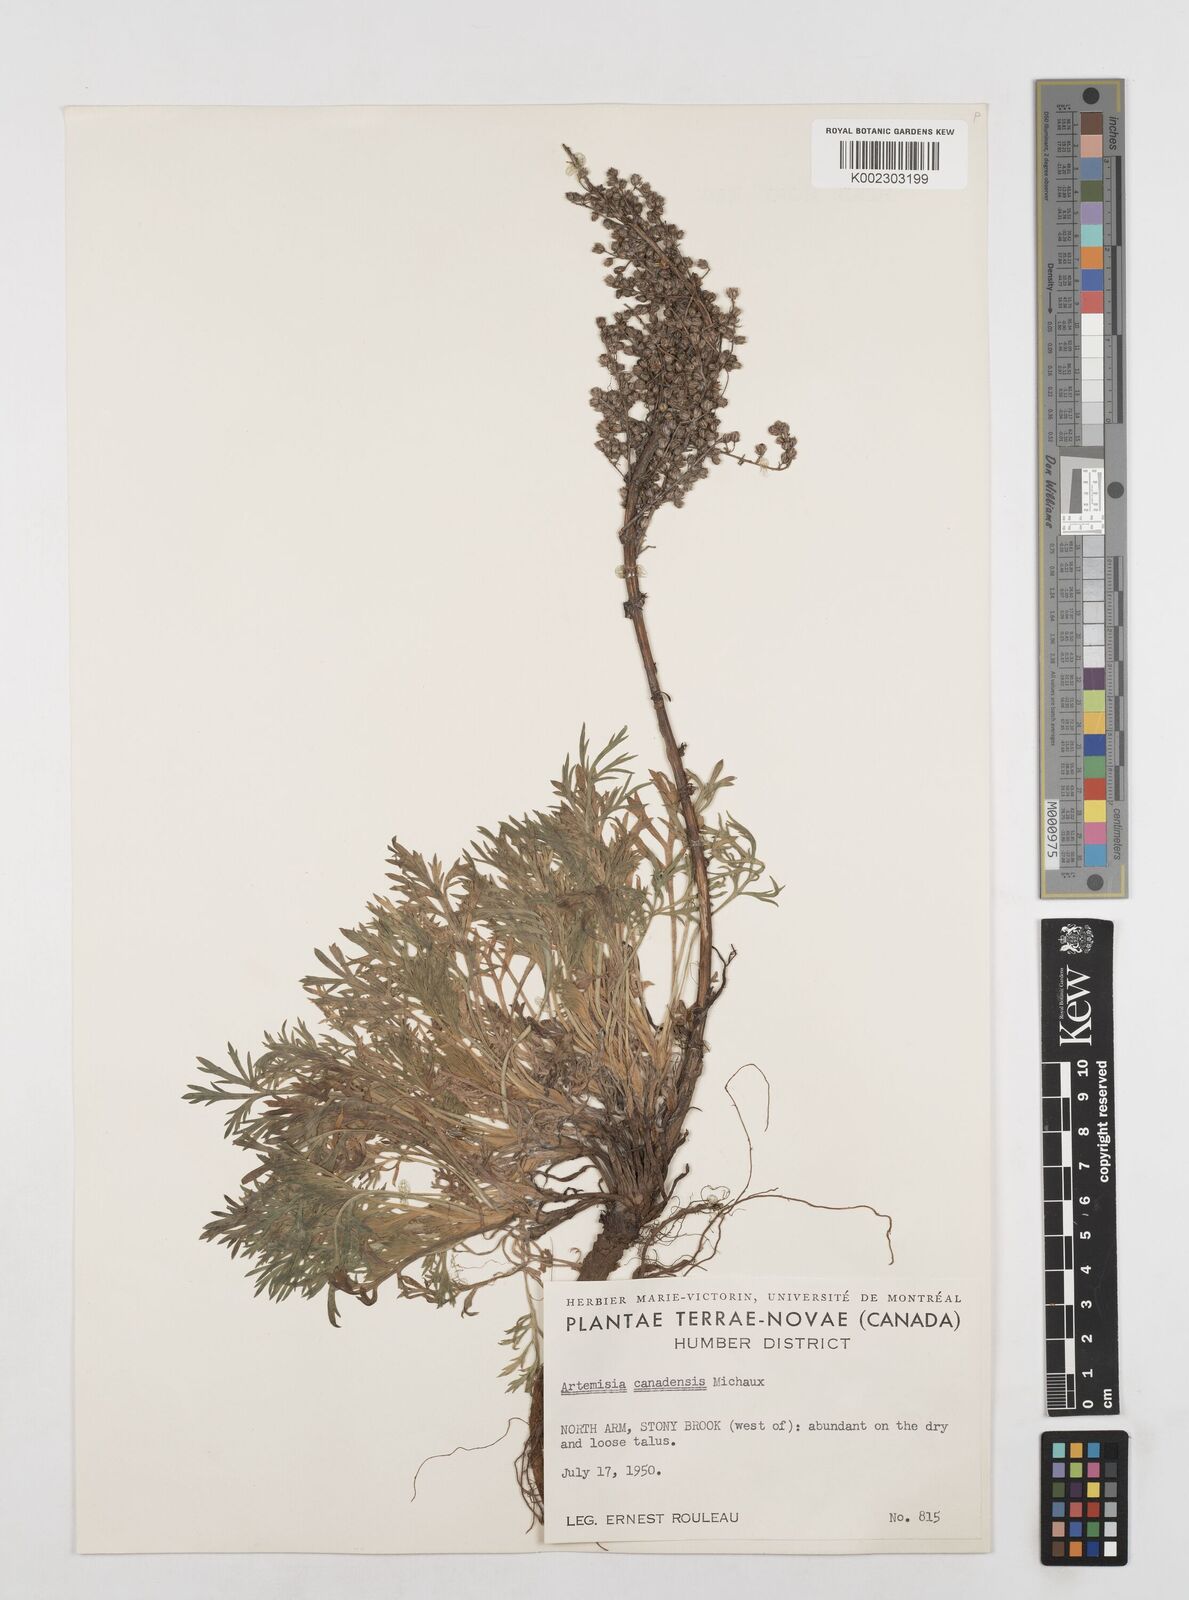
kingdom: Plantae
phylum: Tracheophyta
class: Magnoliopsida
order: Asterales
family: Asteraceae
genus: Artemisia
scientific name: Artemisia campestris
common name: Field wormwood
